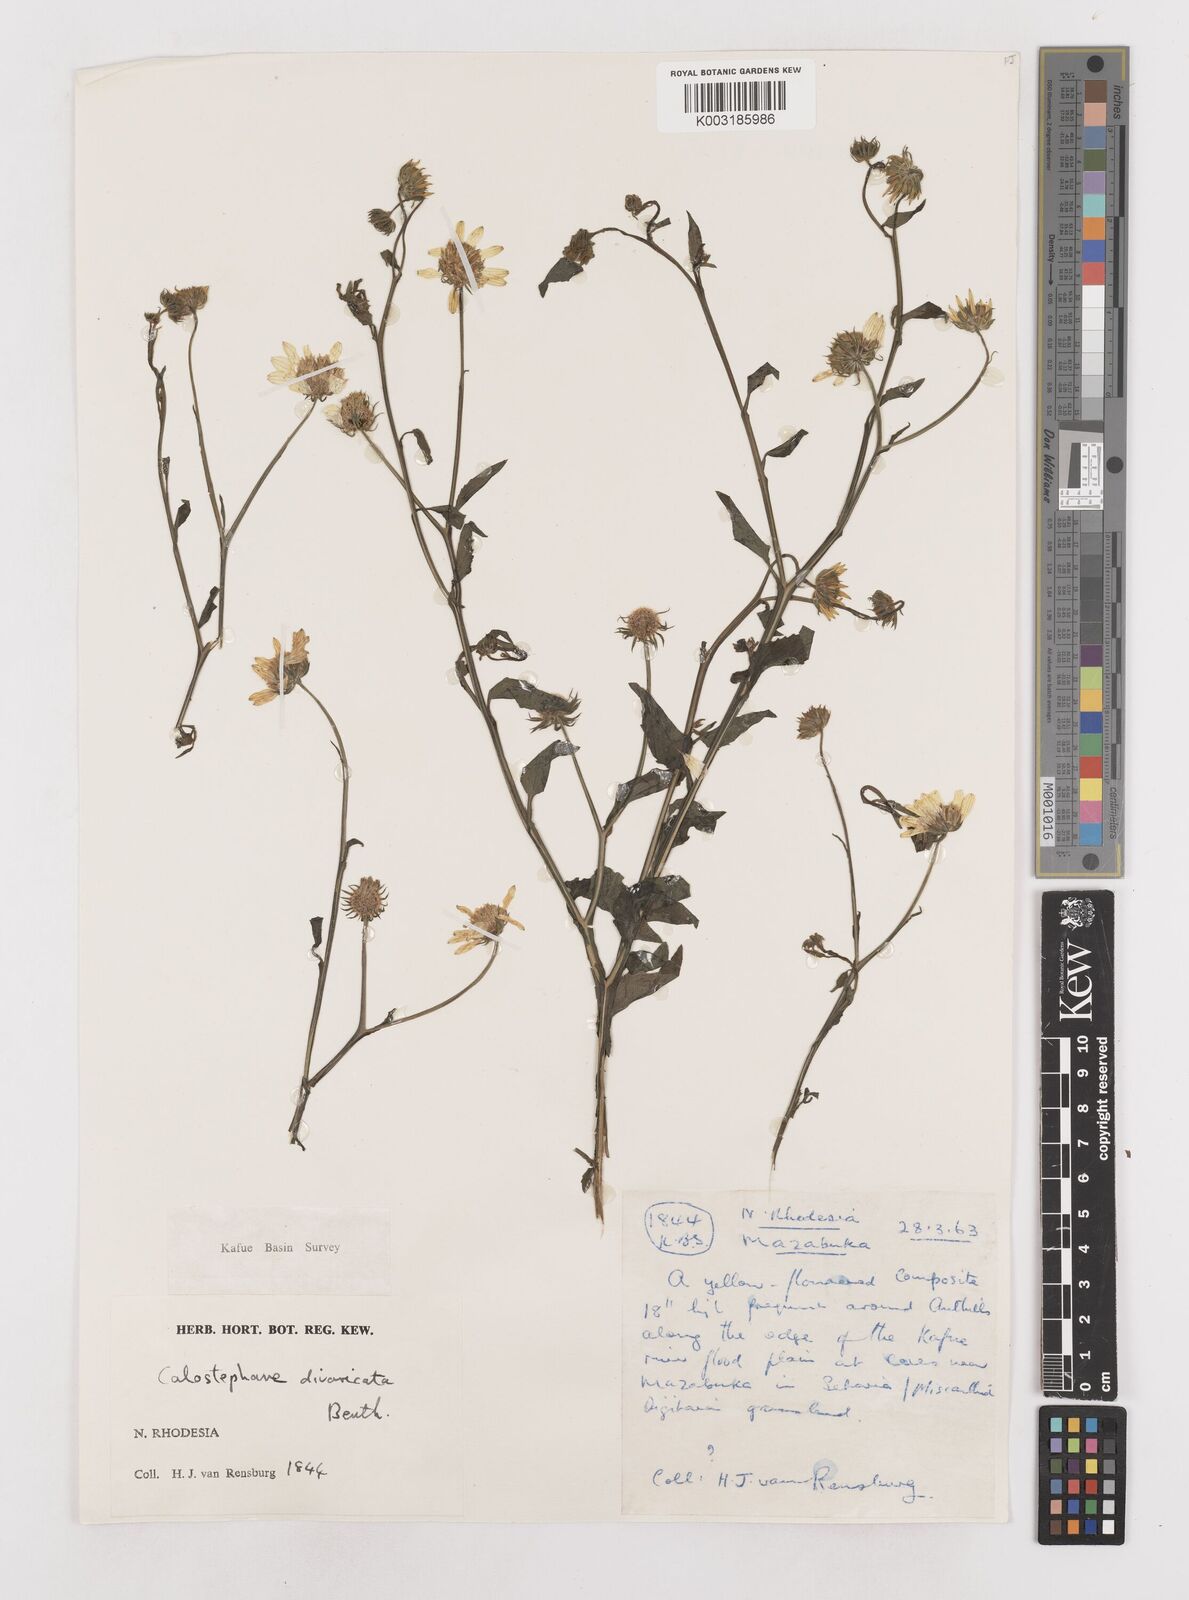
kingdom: Plantae
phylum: Tracheophyta
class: Magnoliopsida
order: Asterales
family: Asteraceae
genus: Calostephane
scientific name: Calostephane divaricata
